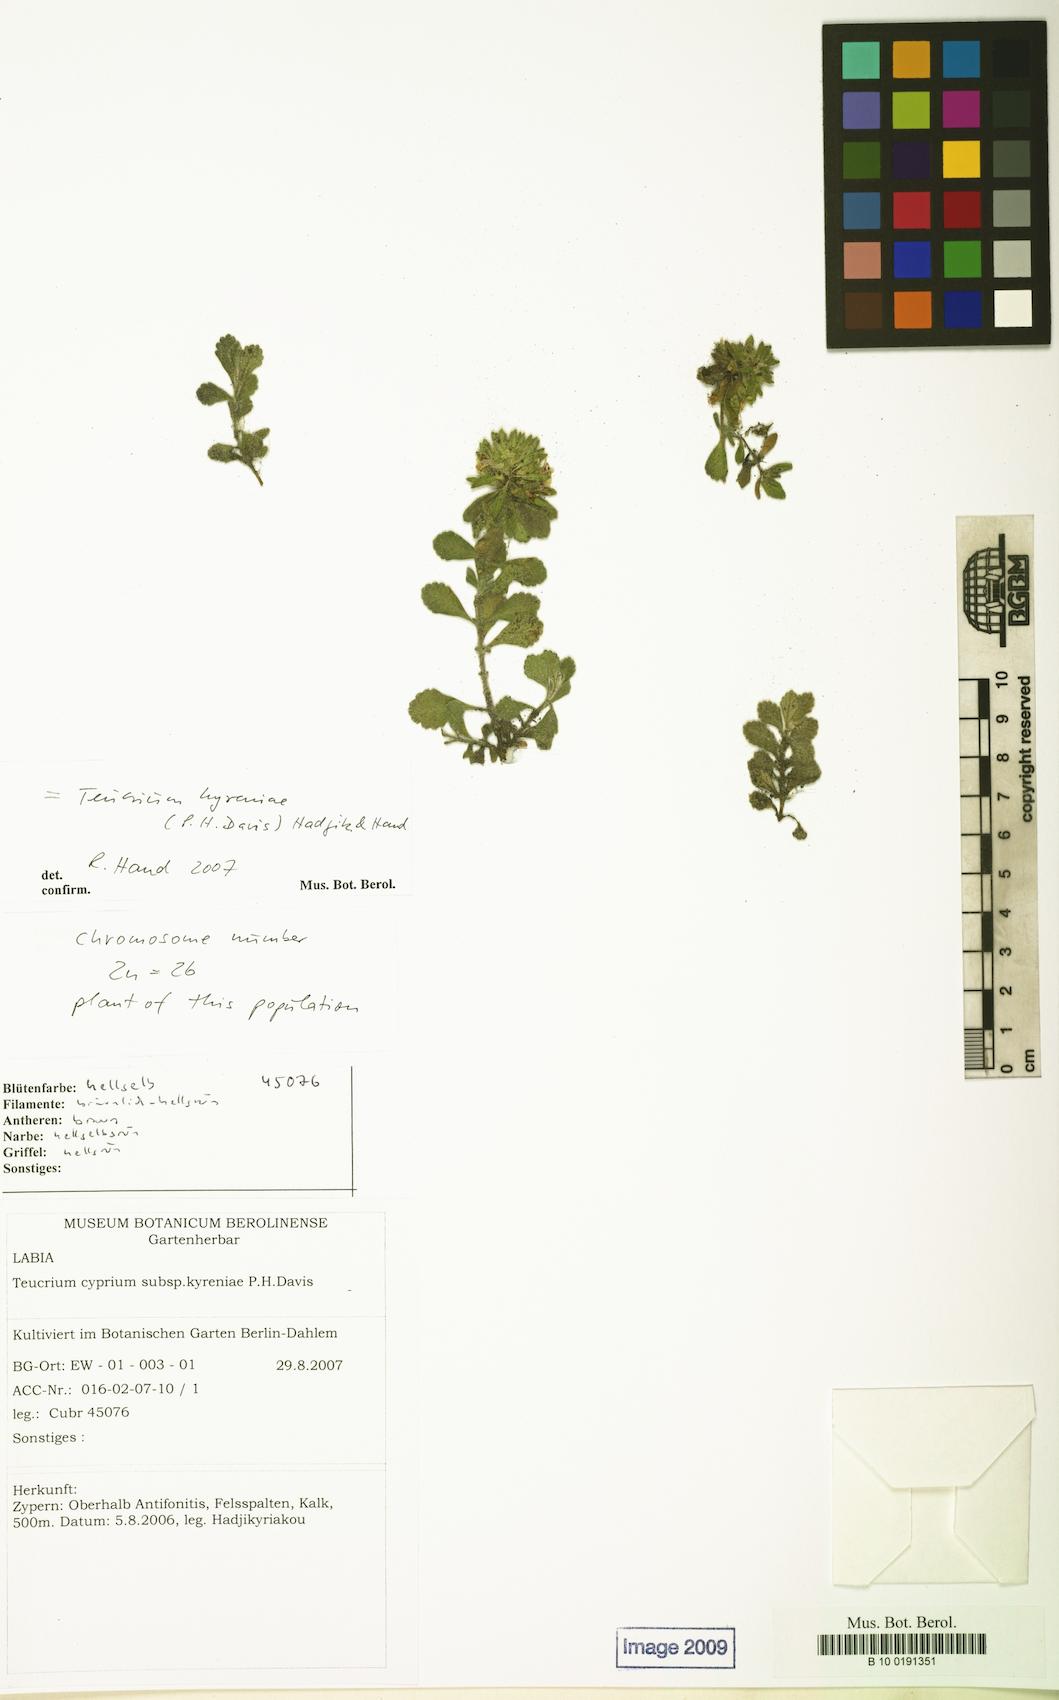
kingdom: Plantae
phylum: Tracheophyta
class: Magnoliopsida
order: Lamiales
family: Lamiaceae
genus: Teucrium
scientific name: Teucrium kyreniae
